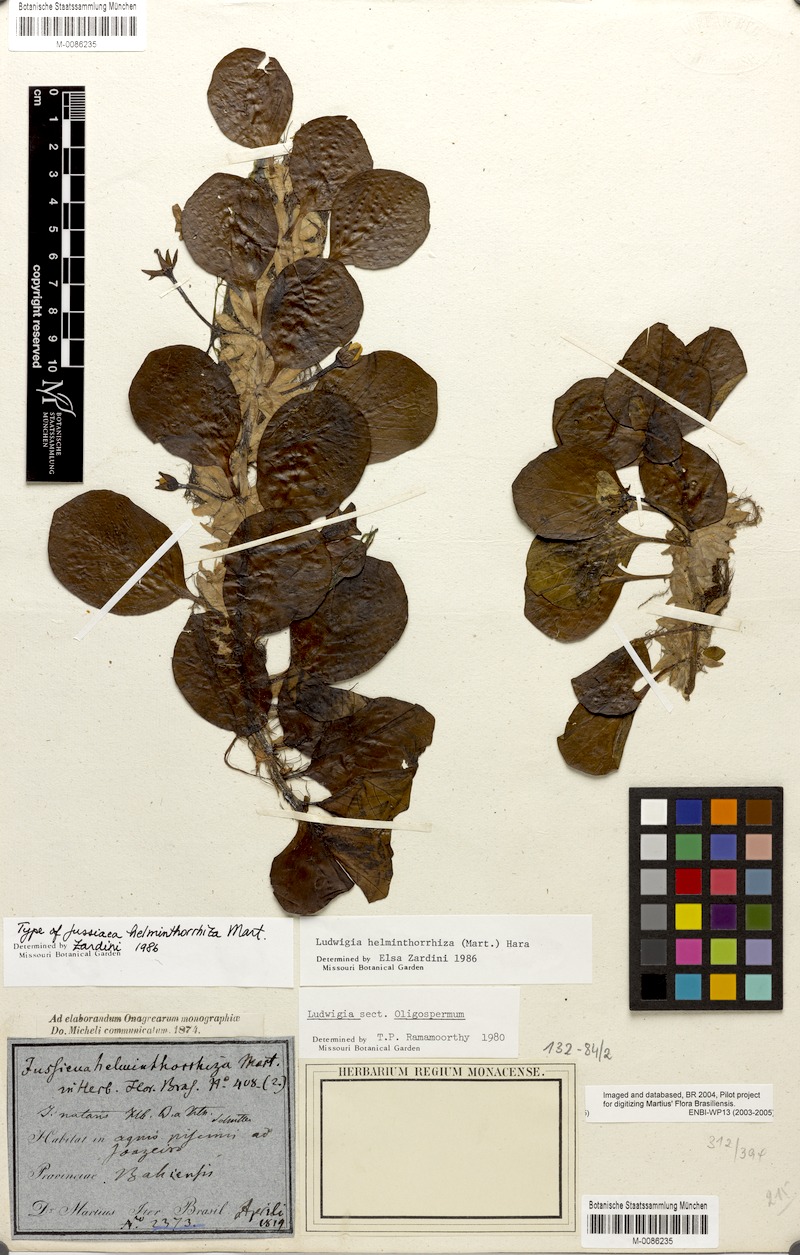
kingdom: Plantae
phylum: Tracheophyta
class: Magnoliopsida
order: Myrtales
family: Onagraceae
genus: Ludwigia
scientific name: Ludwigia helminthorrhiza
